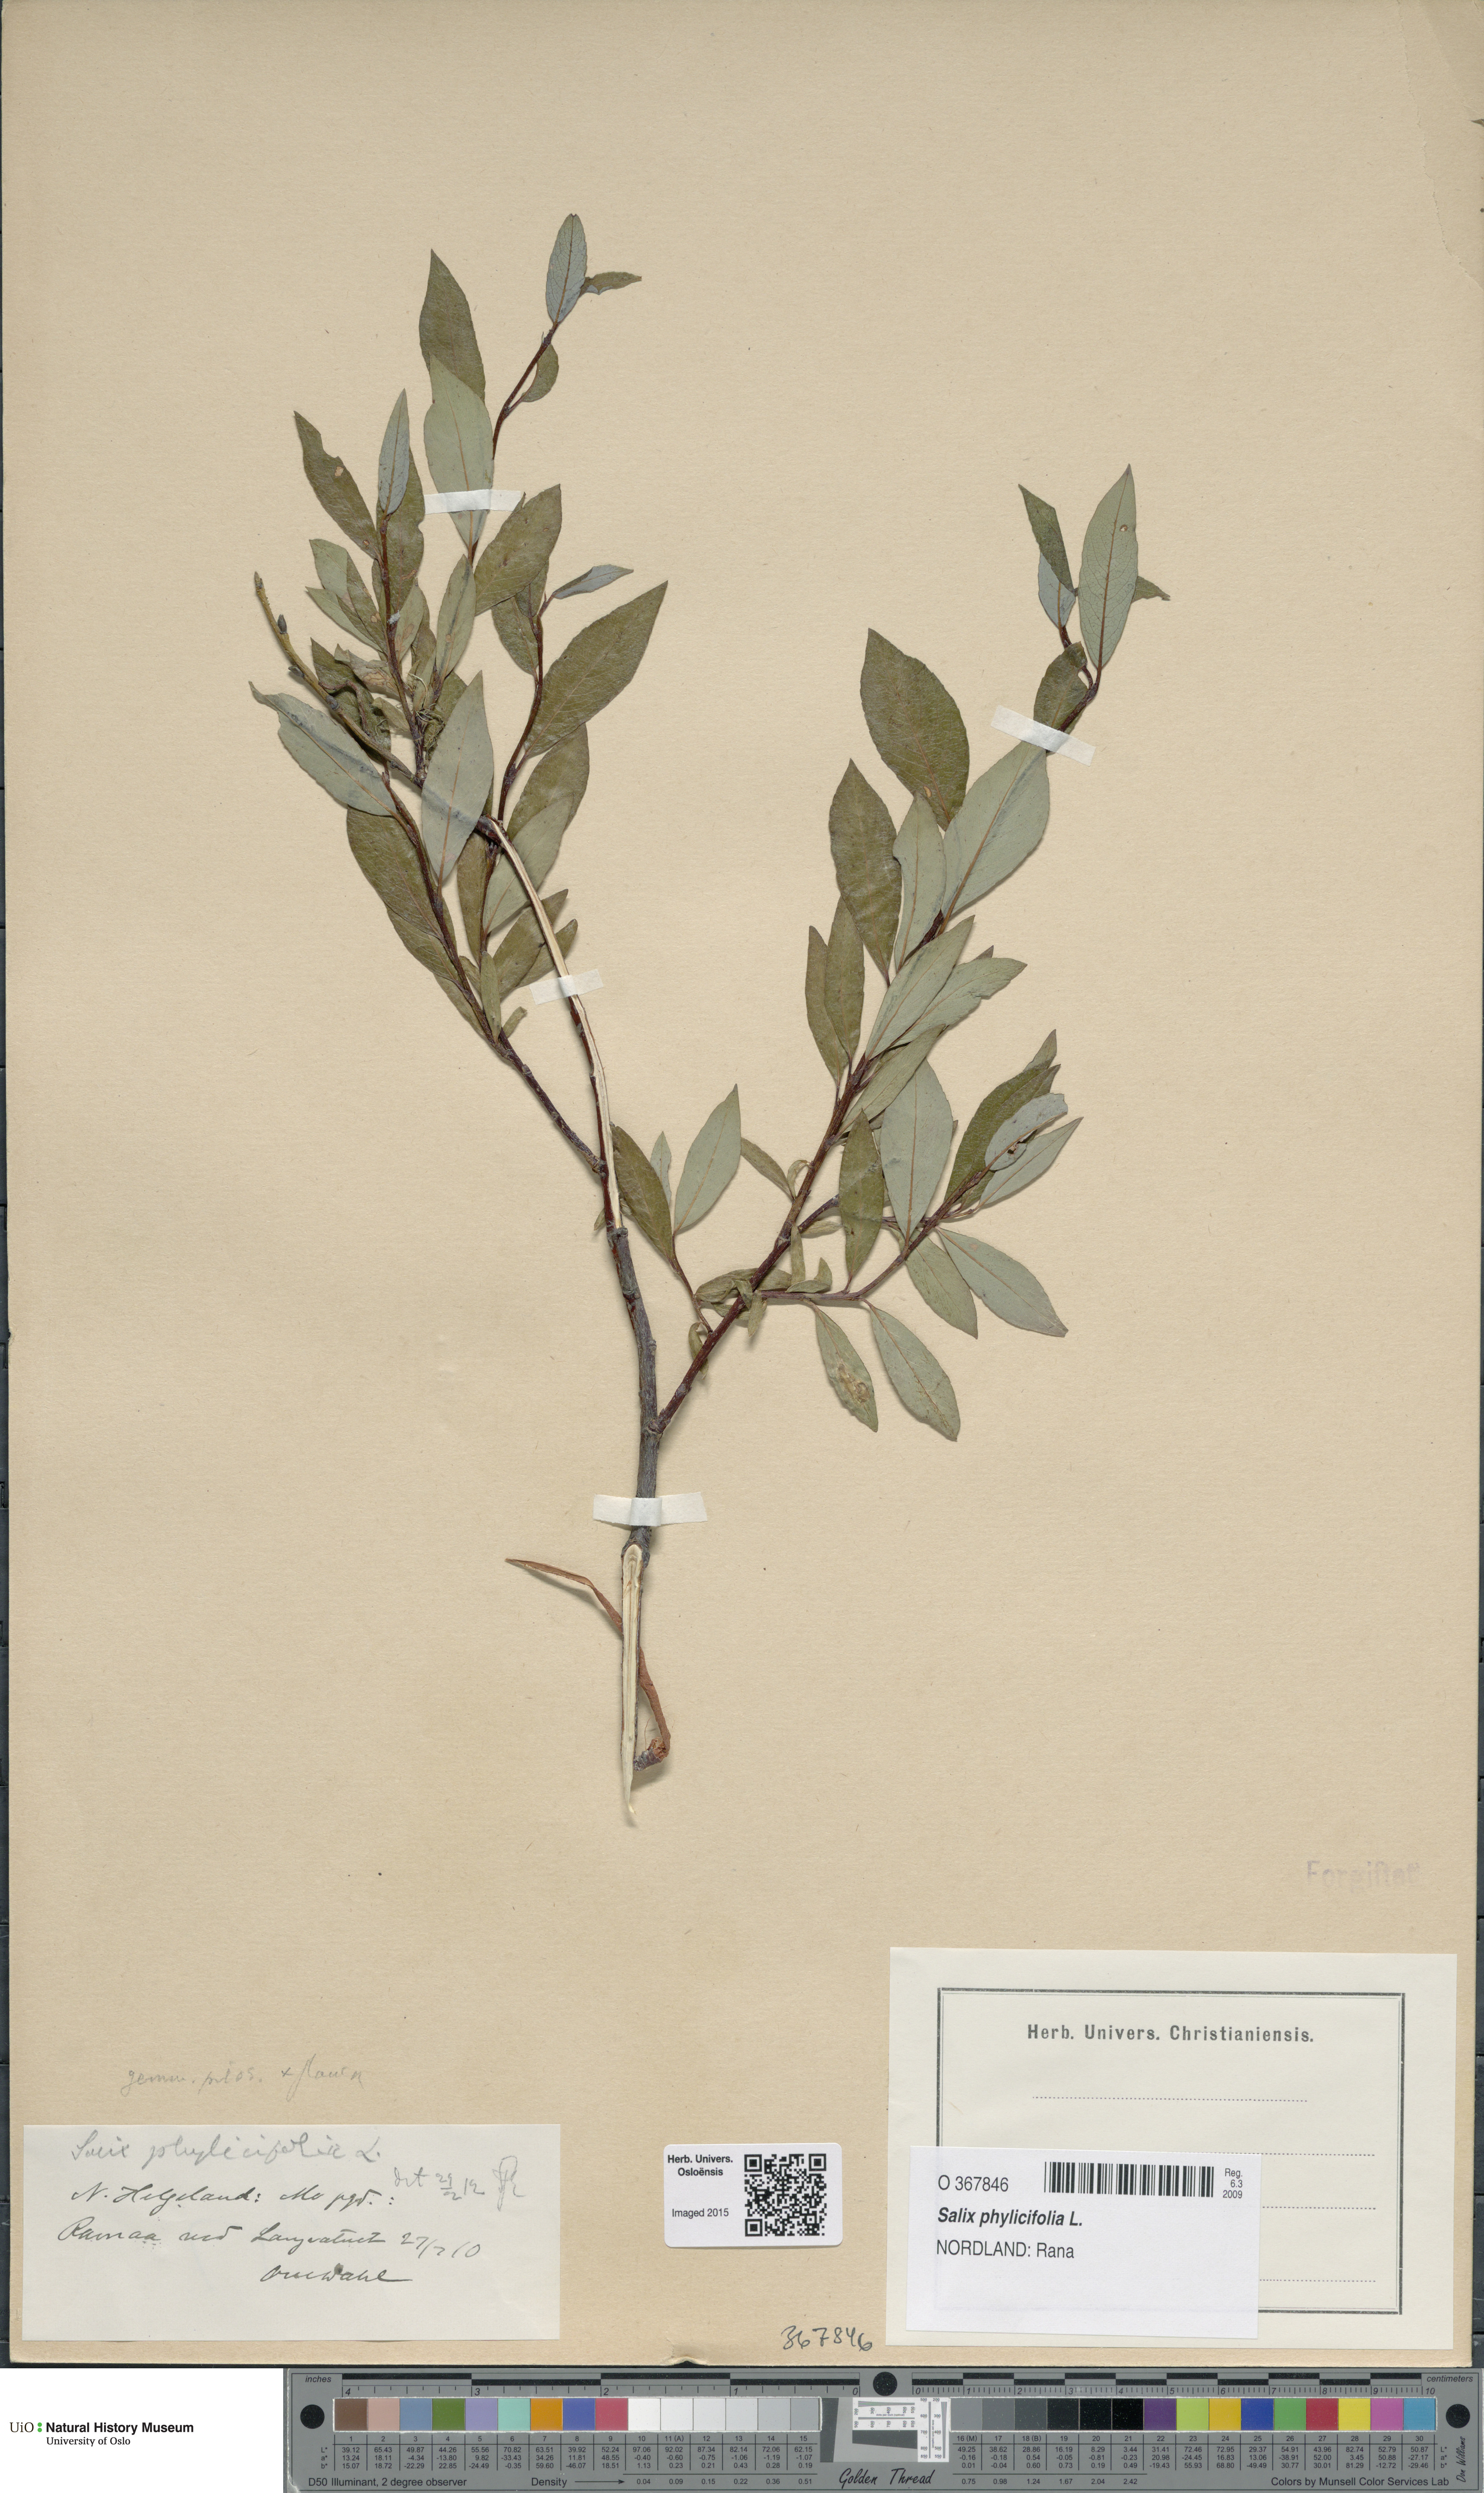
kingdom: Plantae
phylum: Tracheophyta
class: Magnoliopsida
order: Malpighiales
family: Salicaceae
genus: Salix
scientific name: Salix phylicifolia
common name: Tea-leaved willow
